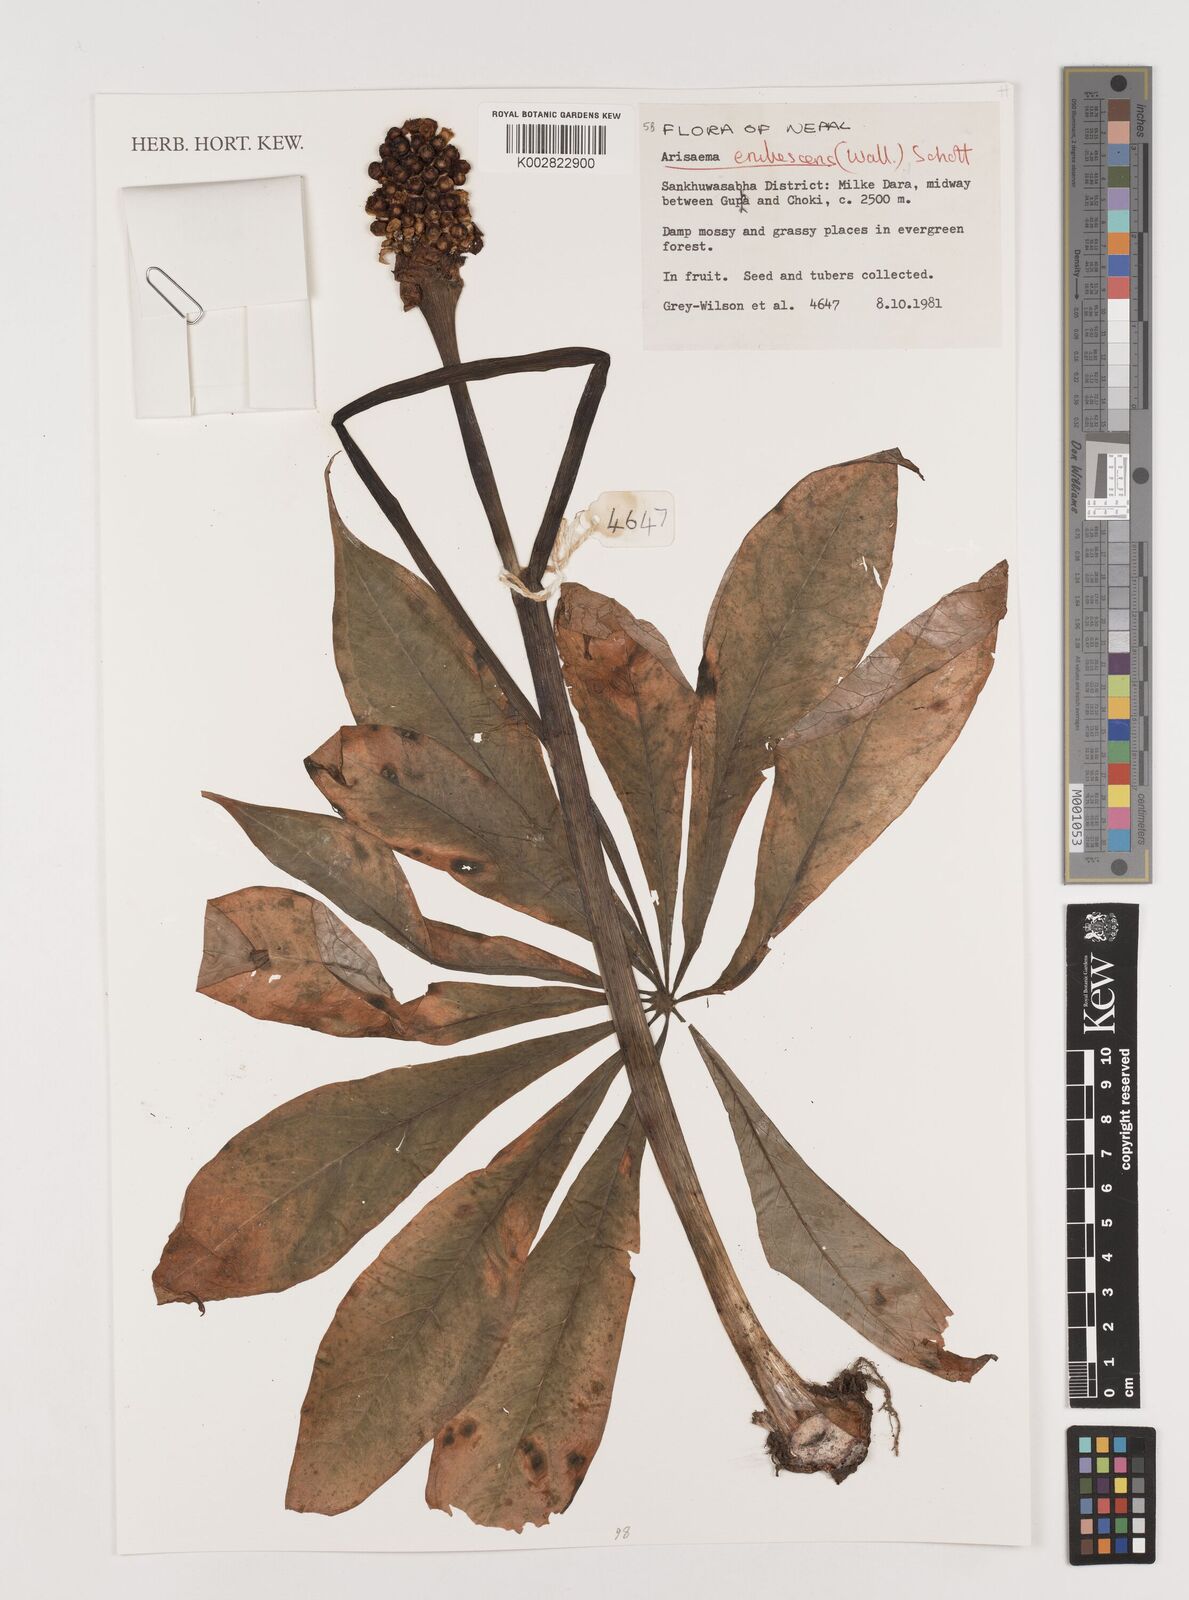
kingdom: Plantae
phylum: Tracheophyta
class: Liliopsida
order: Alismatales
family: Araceae
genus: Arisaema
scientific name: Arisaema erubescens
